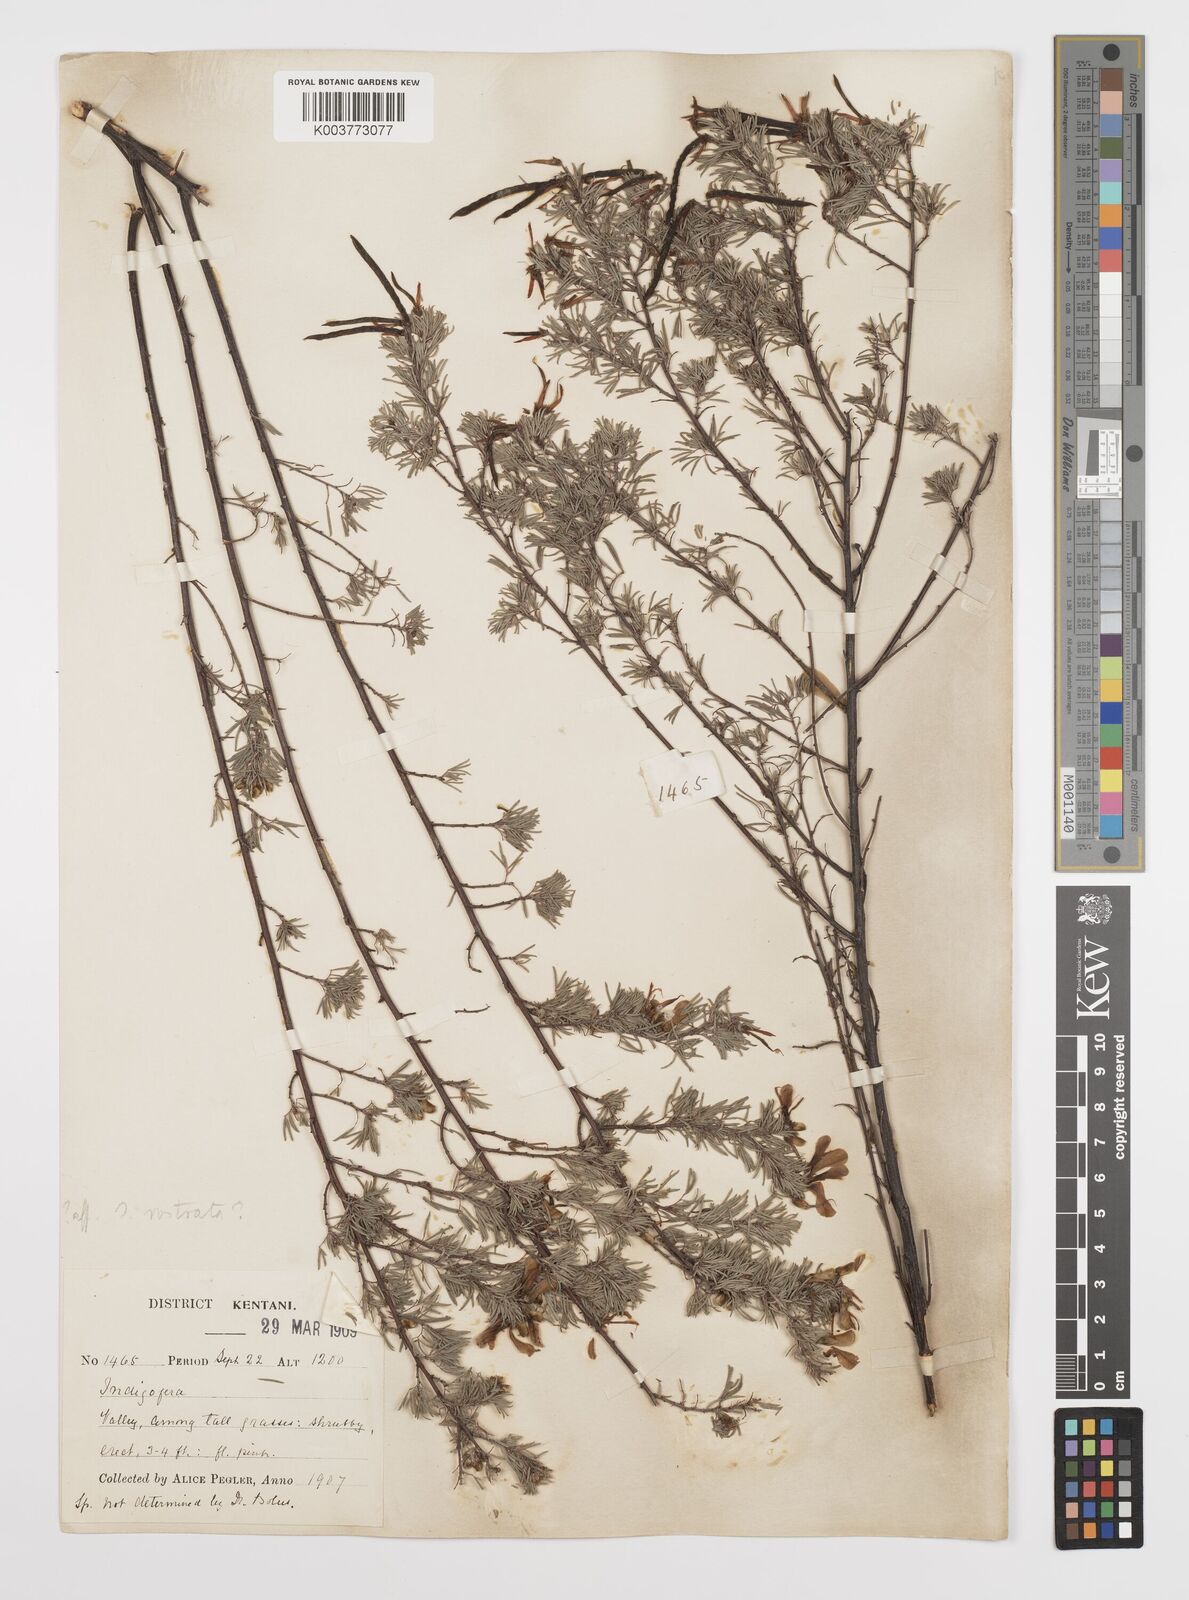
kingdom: Plantae
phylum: Tracheophyta
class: Magnoliopsida
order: Fabales
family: Fabaceae
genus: Indigofera
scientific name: Indigofera
